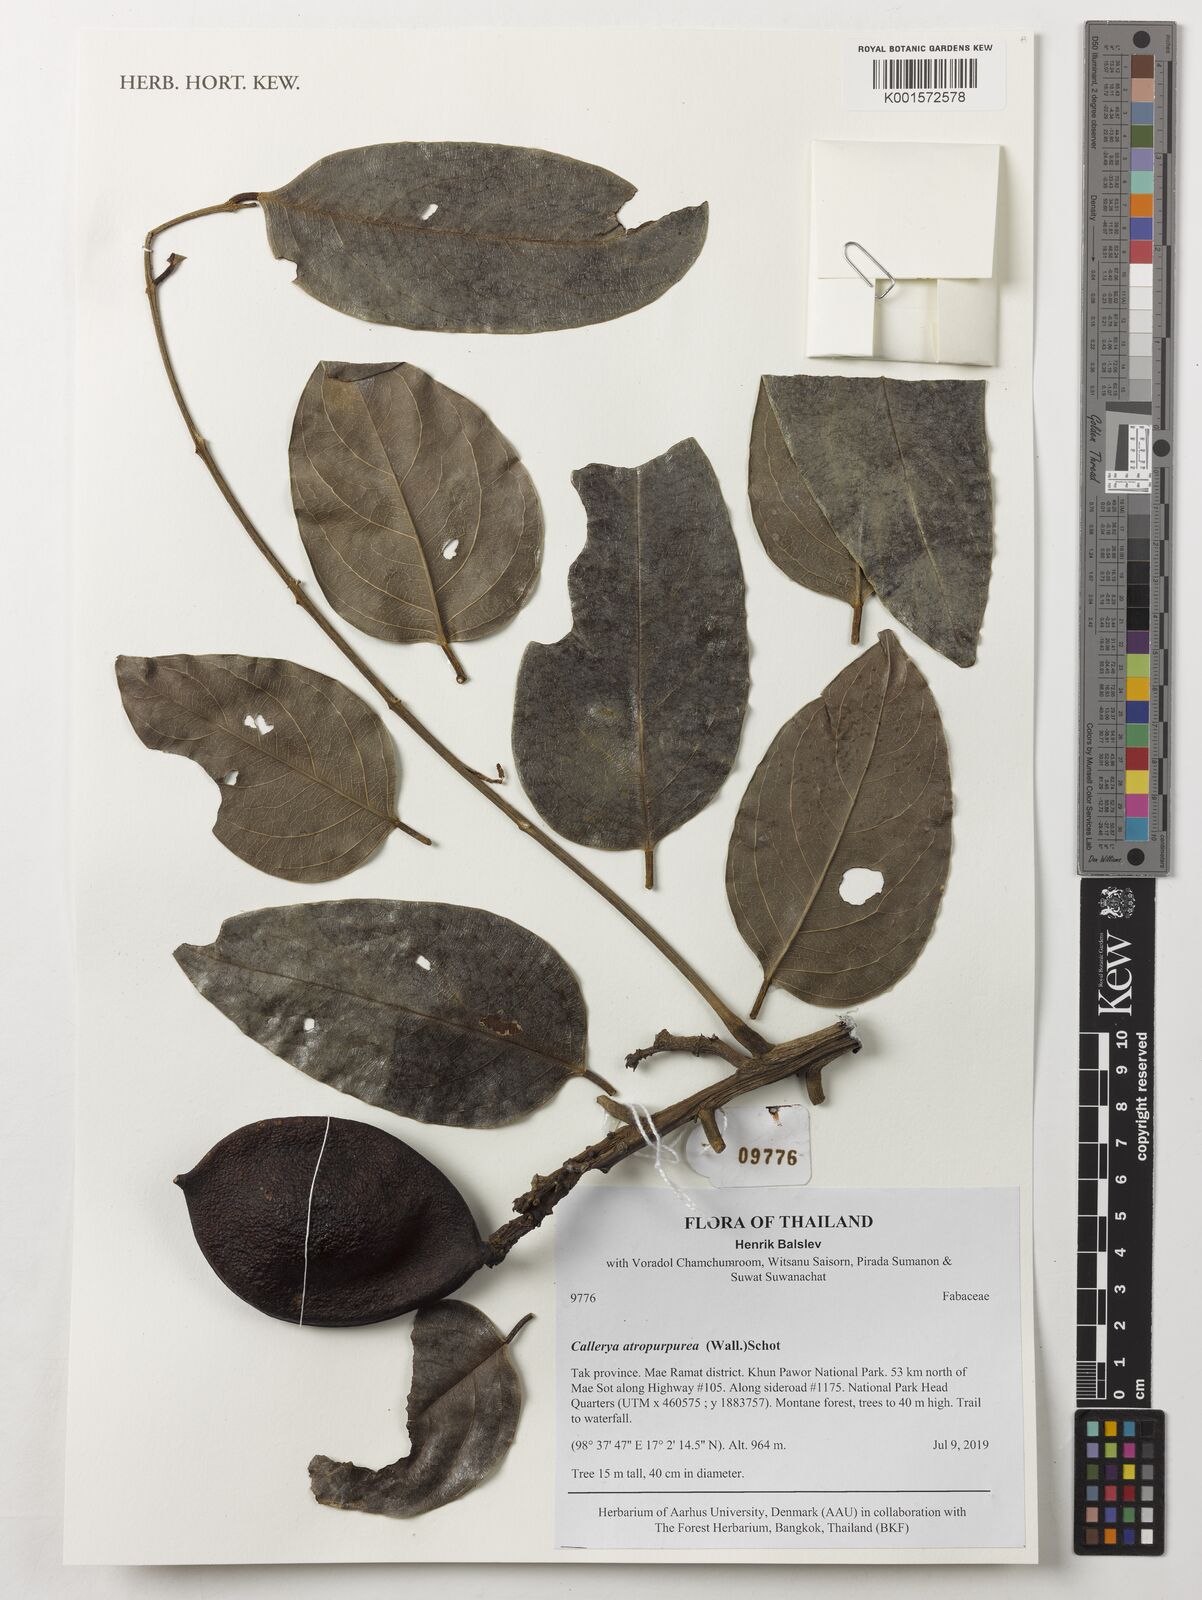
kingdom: Plantae
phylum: Tracheophyta
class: Magnoliopsida
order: Fabales
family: Fabaceae
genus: Adinobotrys
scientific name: Adinobotrys atropurpureus
